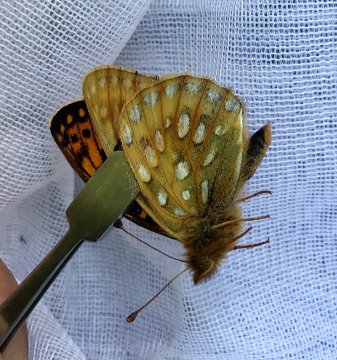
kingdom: Animalia
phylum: Arthropoda
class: Insecta
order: Lepidoptera
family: Nymphalidae
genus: Speyeria
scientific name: Speyeria mormonia
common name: Mormon Fritillary
